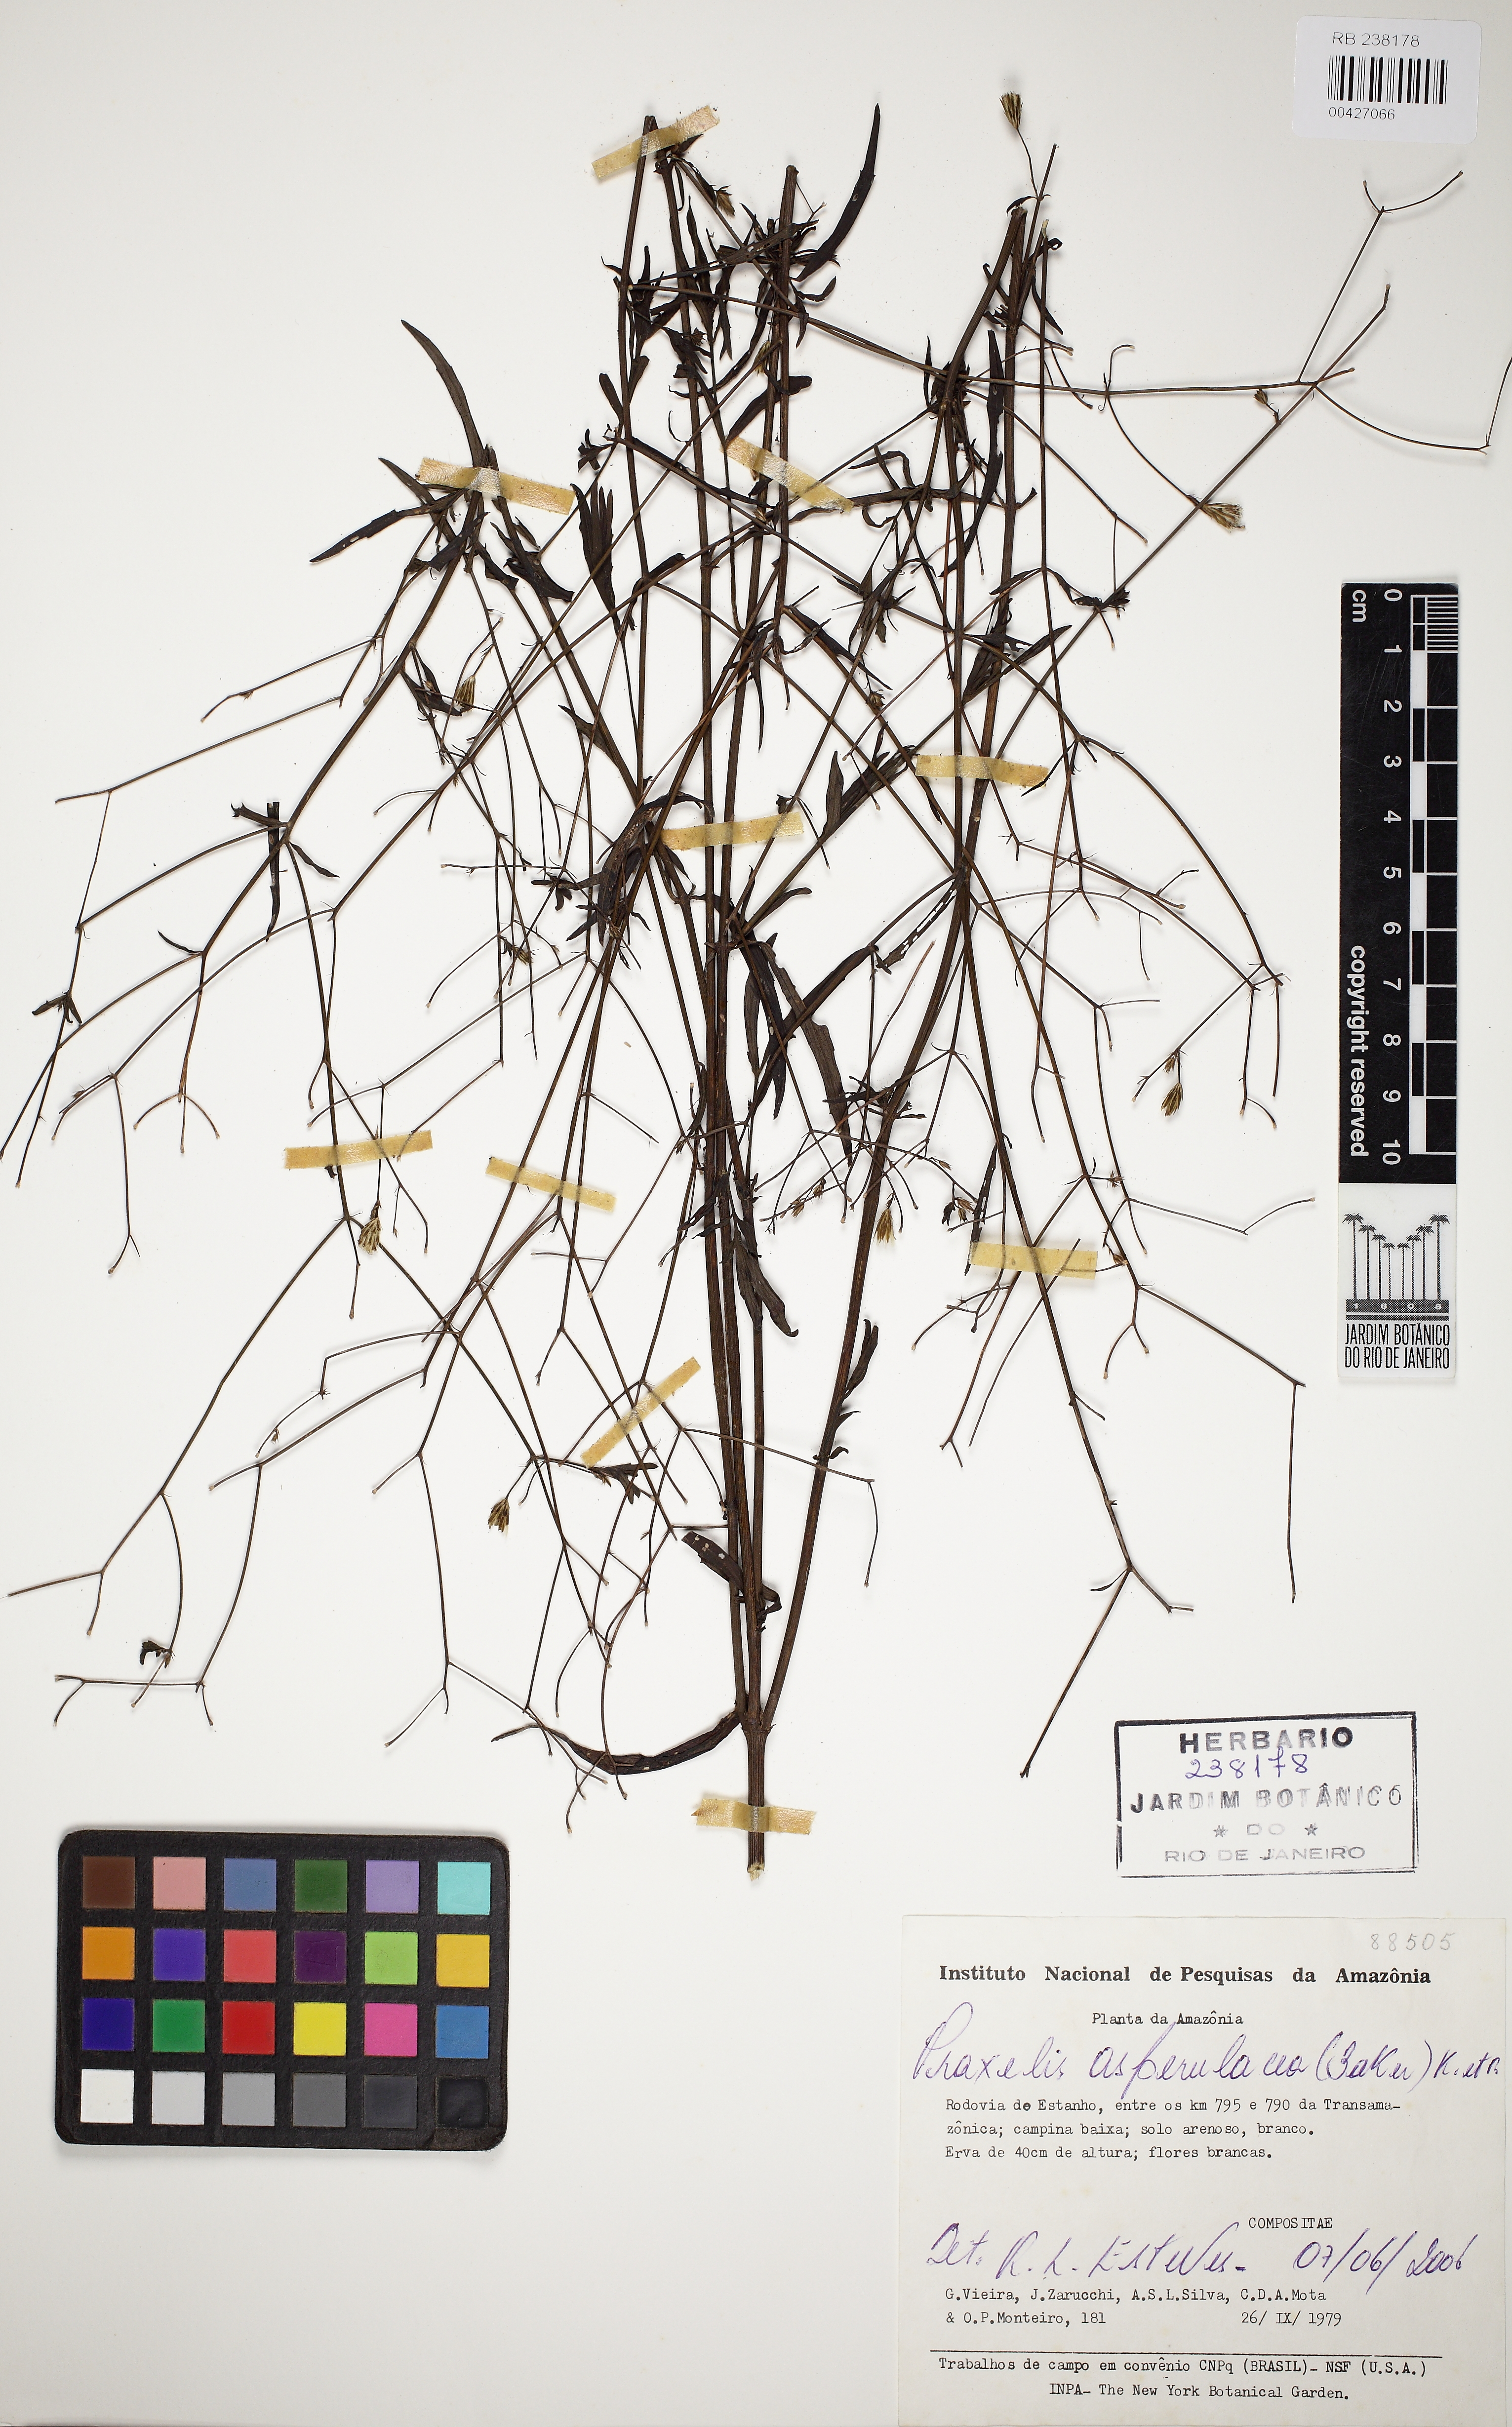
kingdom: Plantae
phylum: Tracheophyta
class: Magnoliopsida
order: Asterales
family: Asteraceae
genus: Praxelis
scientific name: Praxelis asperulacea
